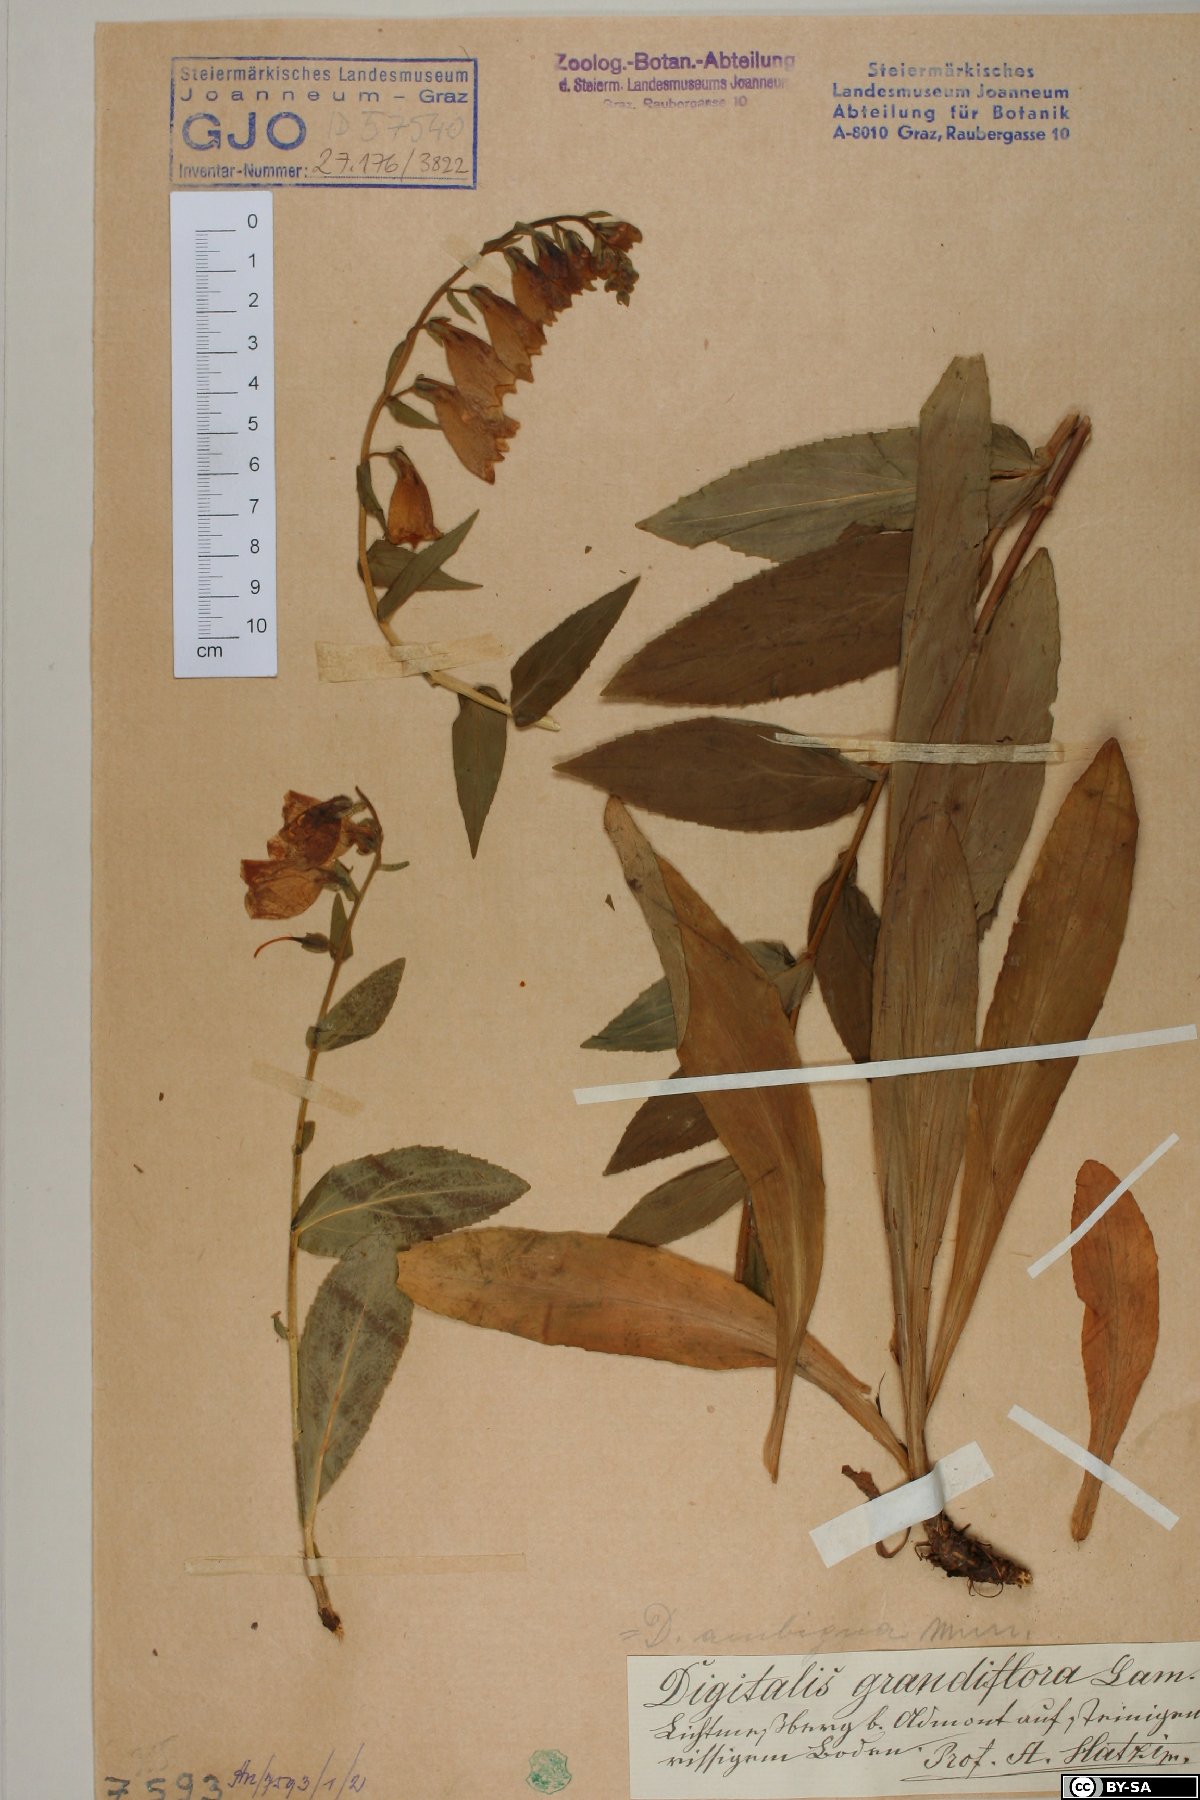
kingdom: Plantae
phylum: Tracheophyta
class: Magnoliopsida
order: Lamiales
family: Plantaginaceae
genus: Digitalis
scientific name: Digitalis grandiflora
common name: Yellow foxglove
